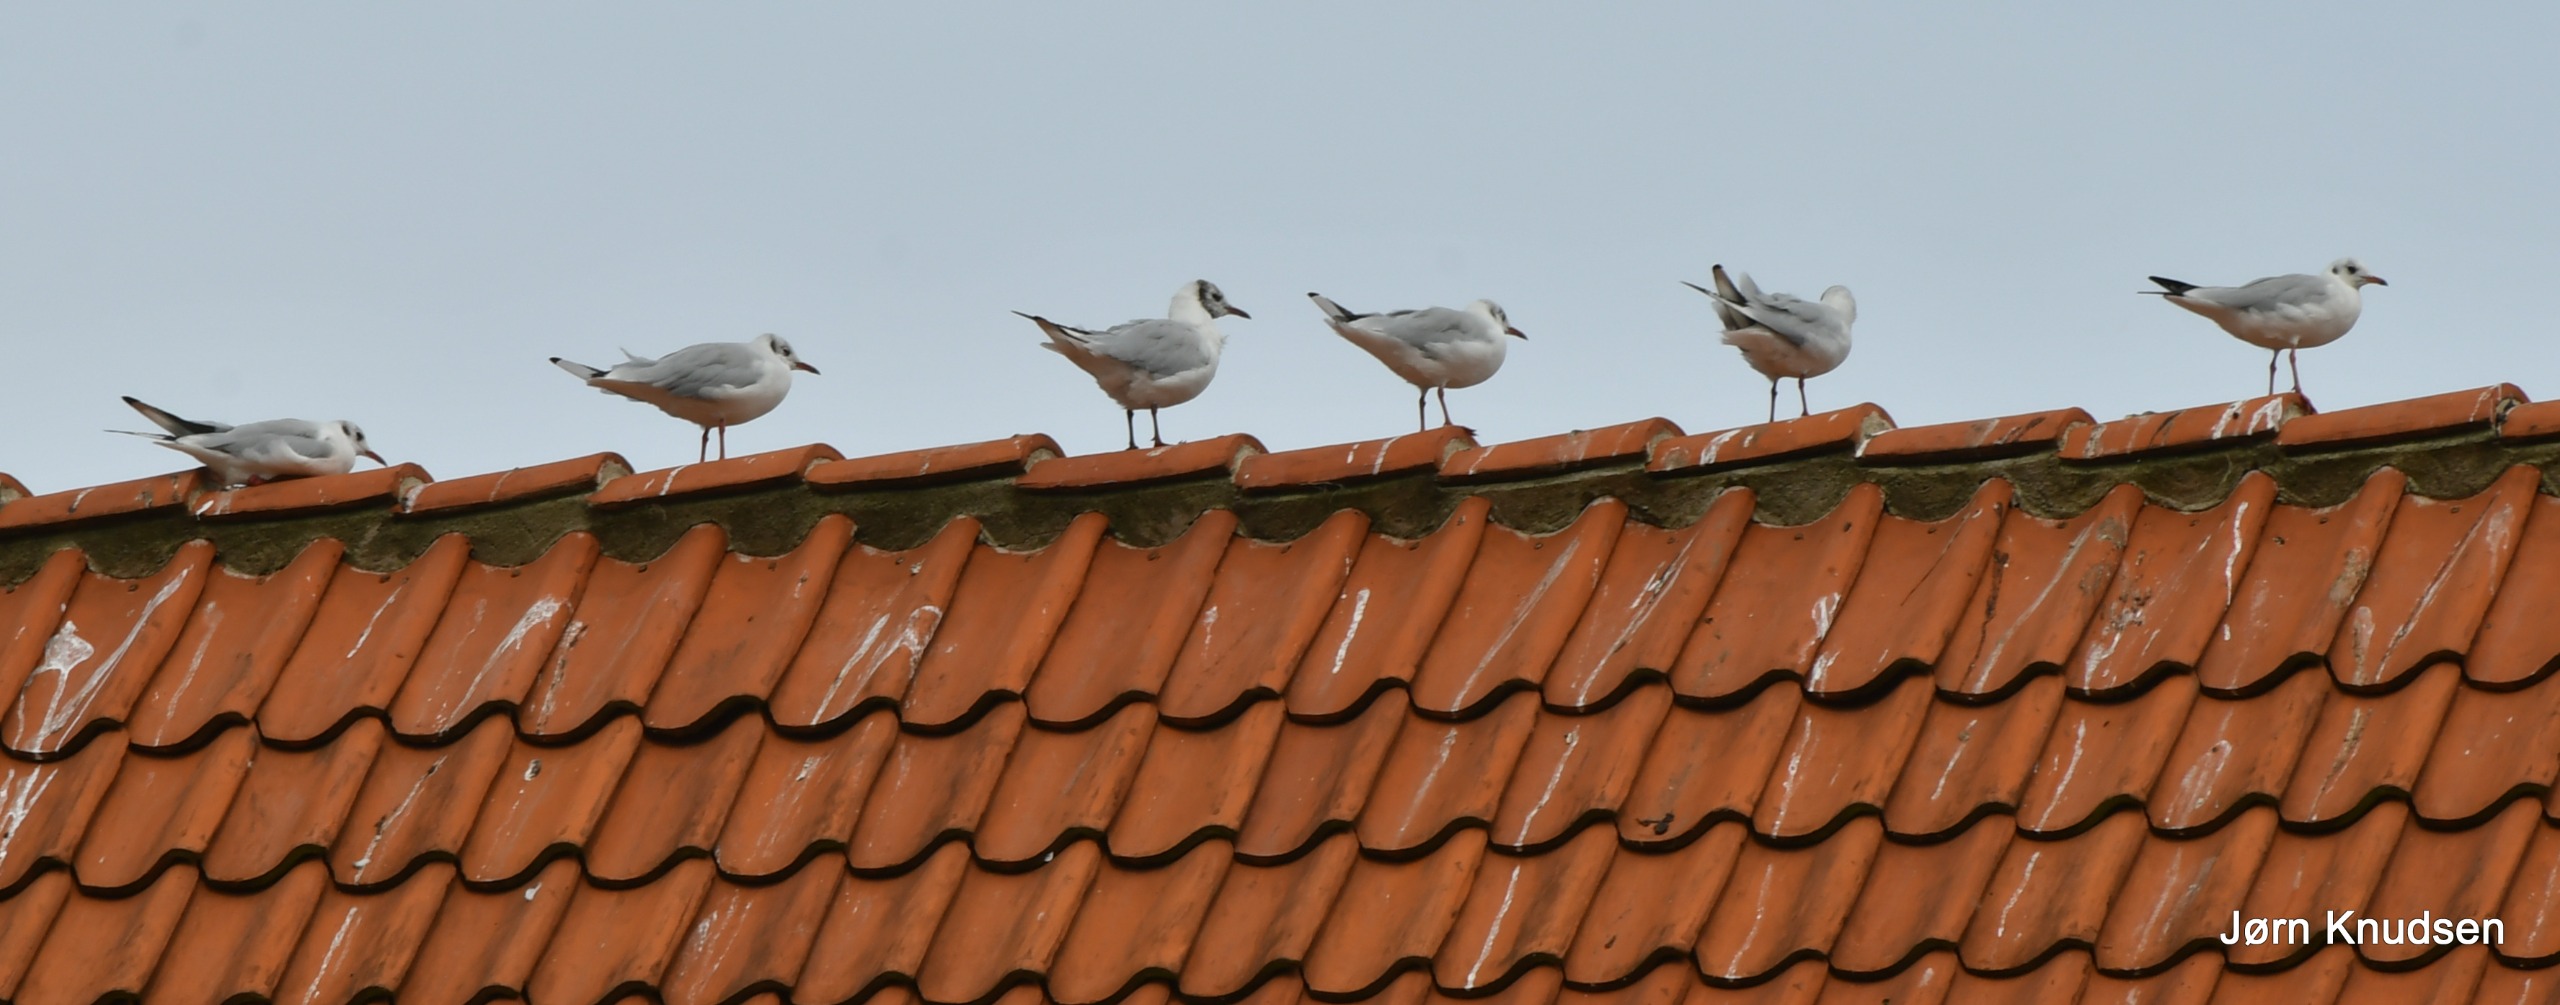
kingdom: Animalia
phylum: Chordata
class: Aves
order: Charadriiformes
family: Laridae
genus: Chroicocephalus
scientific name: Chroicocephalus ridibundus
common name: Hættemåge
